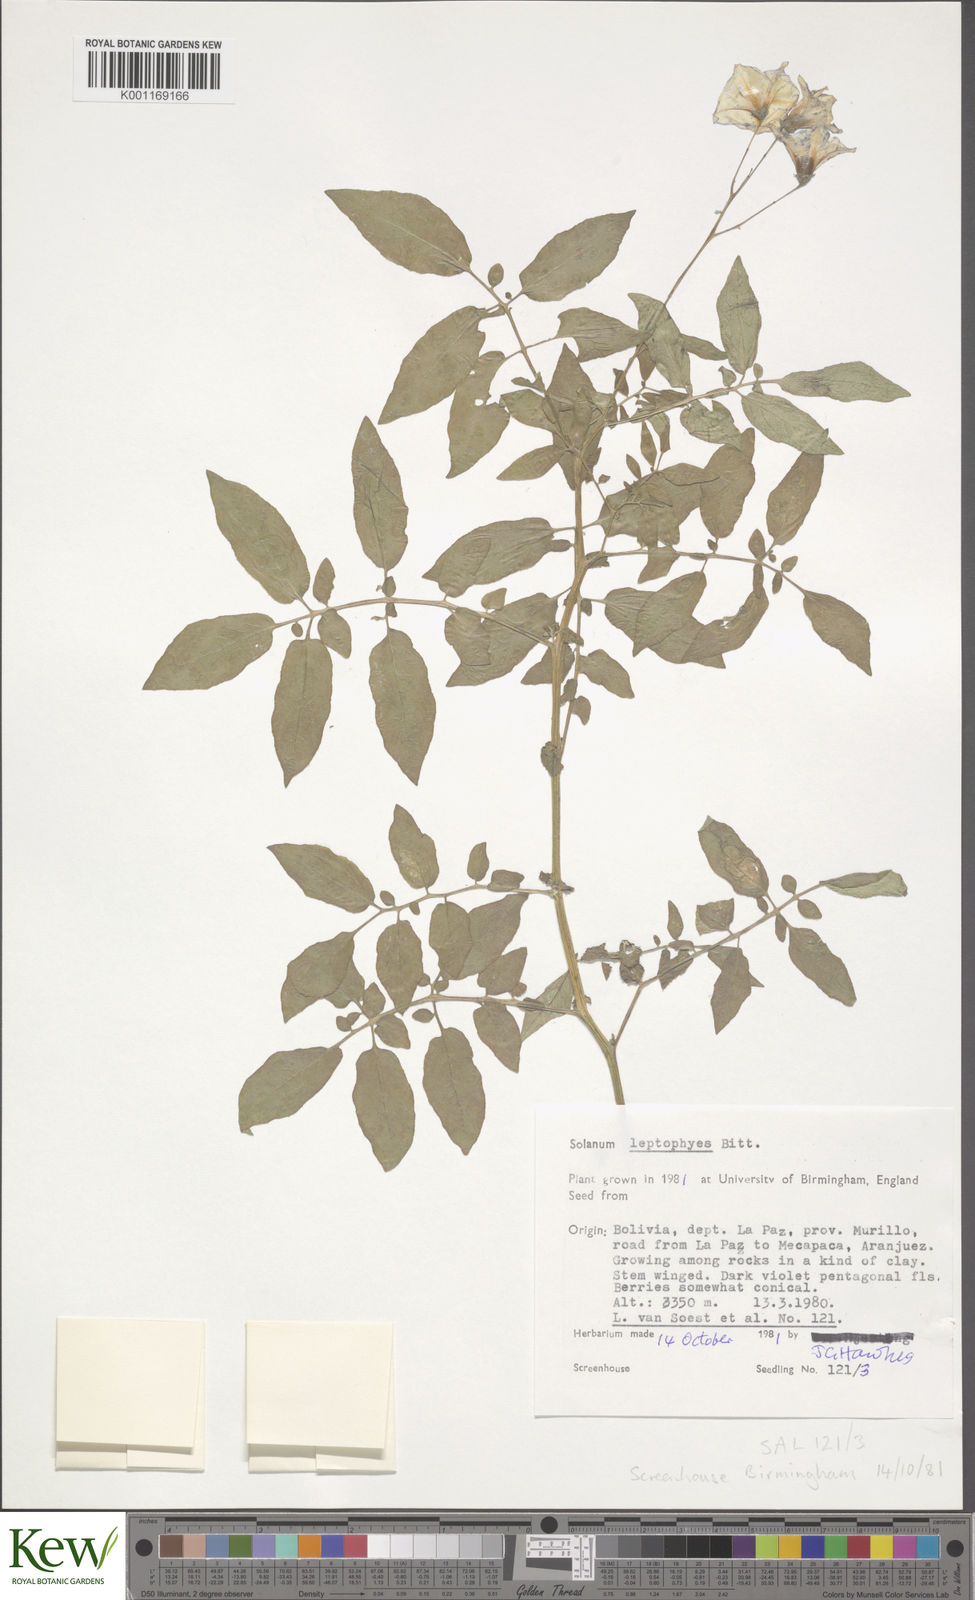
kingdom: Plantae
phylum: Tracheophyta
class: Magnoliopsida
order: Solanales
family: Solanaceae
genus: Solanum
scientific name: Solanum brevicaule
